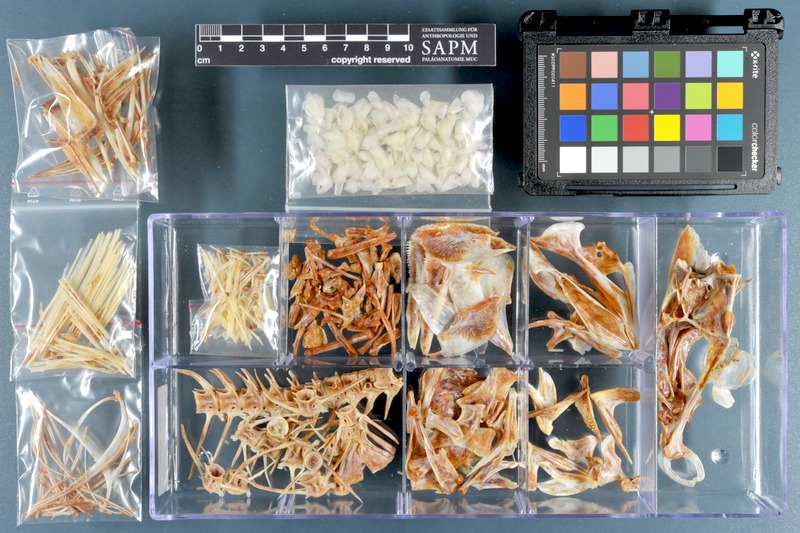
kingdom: Animalia
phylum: Chordata
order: Perciformes
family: Haemulidae
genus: Pomadasys
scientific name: Pomadasys rogerii
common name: Pigsnout grunt
